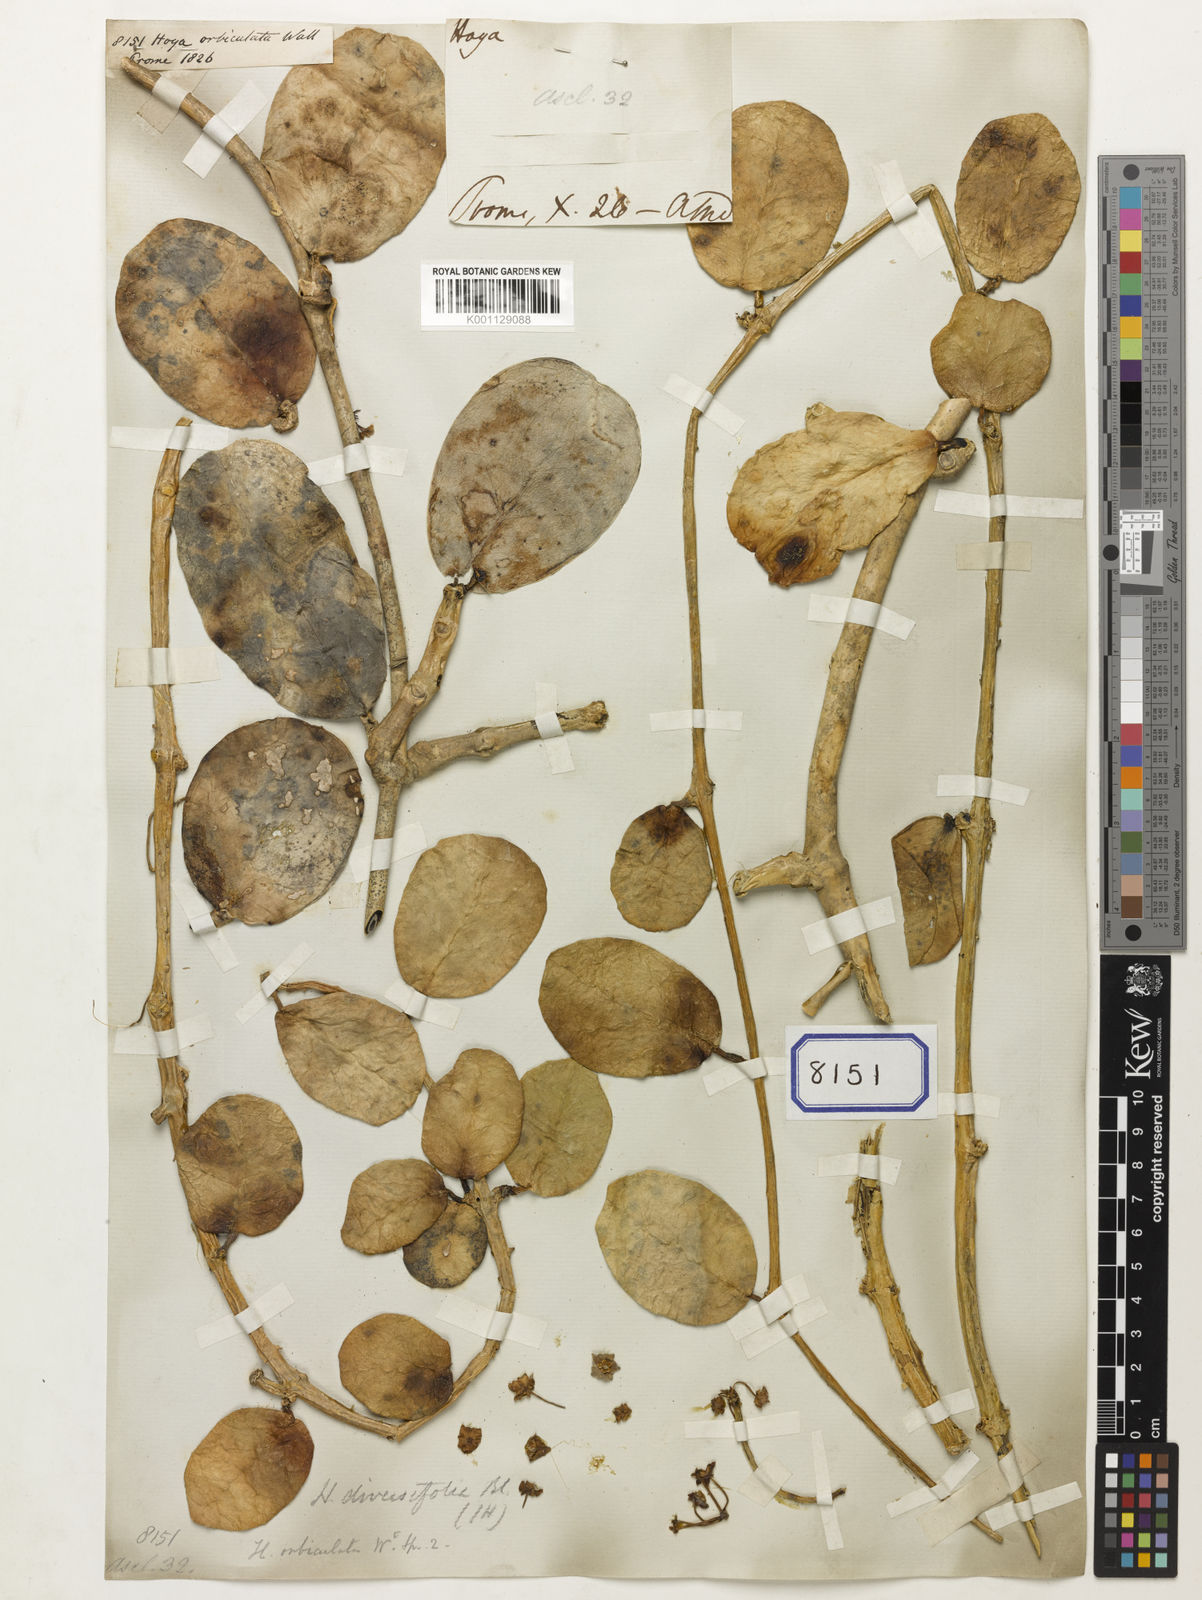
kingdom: Plantae
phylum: Tracheophyta
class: Magnoliopsida
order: Gentianales
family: Apocynaceae
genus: Hoya
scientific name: Hoya
